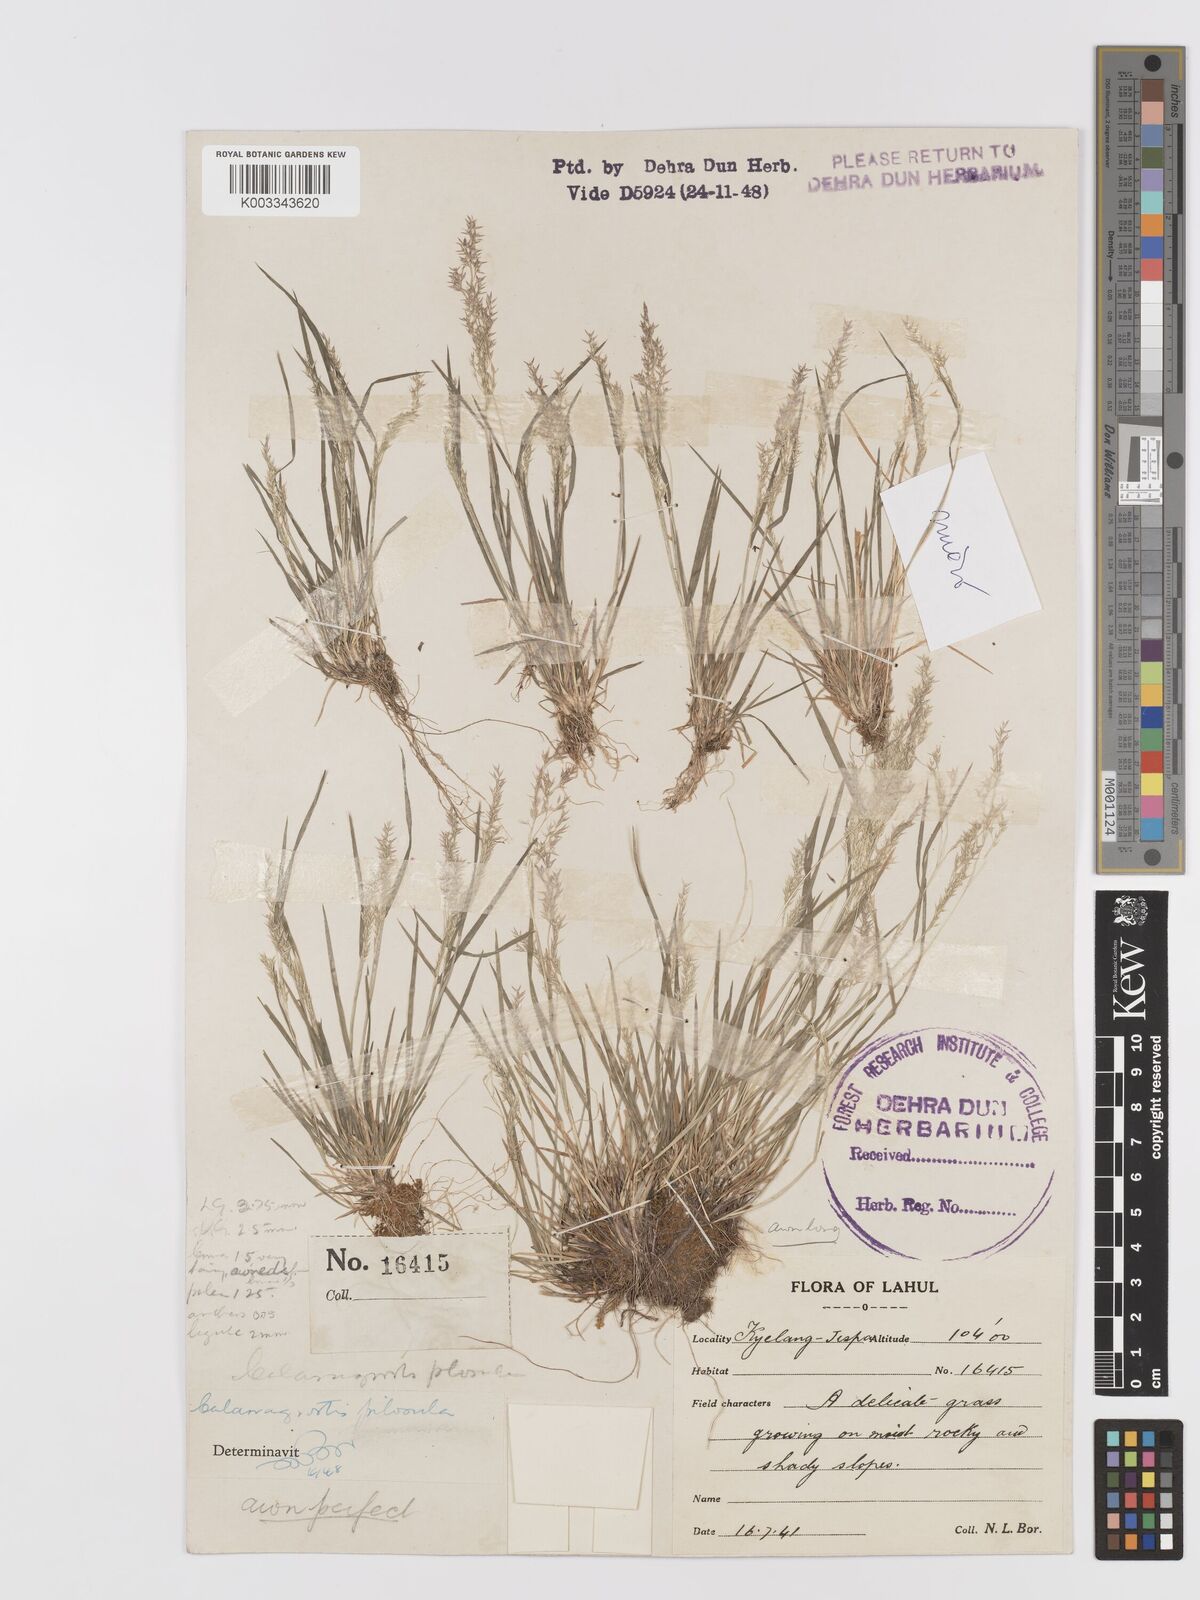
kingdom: Plantae
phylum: Tracheophyta
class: Liliopsida
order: Poales
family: Poaceae
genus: Agrostis
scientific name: Agrostis munroana
